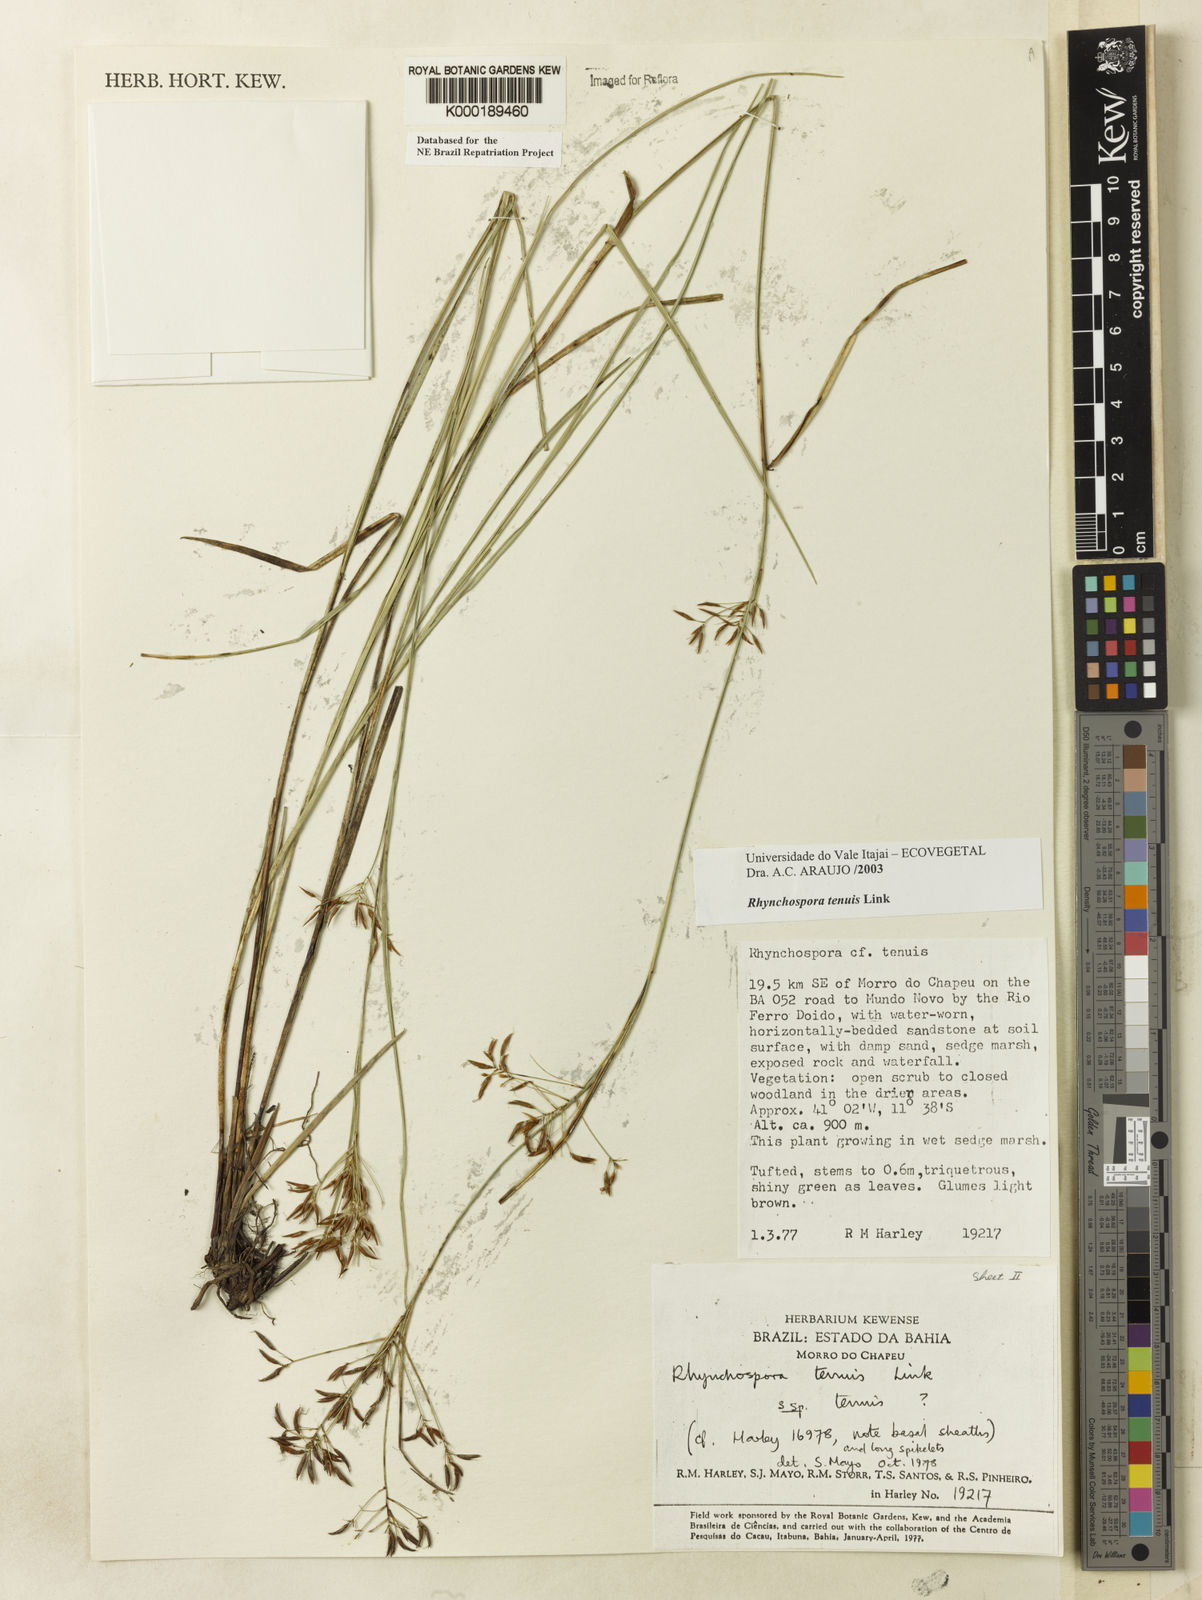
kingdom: Plantae
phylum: Tracheophyta
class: Liliopsida
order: Poales
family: Cyperaceae
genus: Rhynchospora
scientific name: Rhynchospora tenuis
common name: Quill beaksedge
